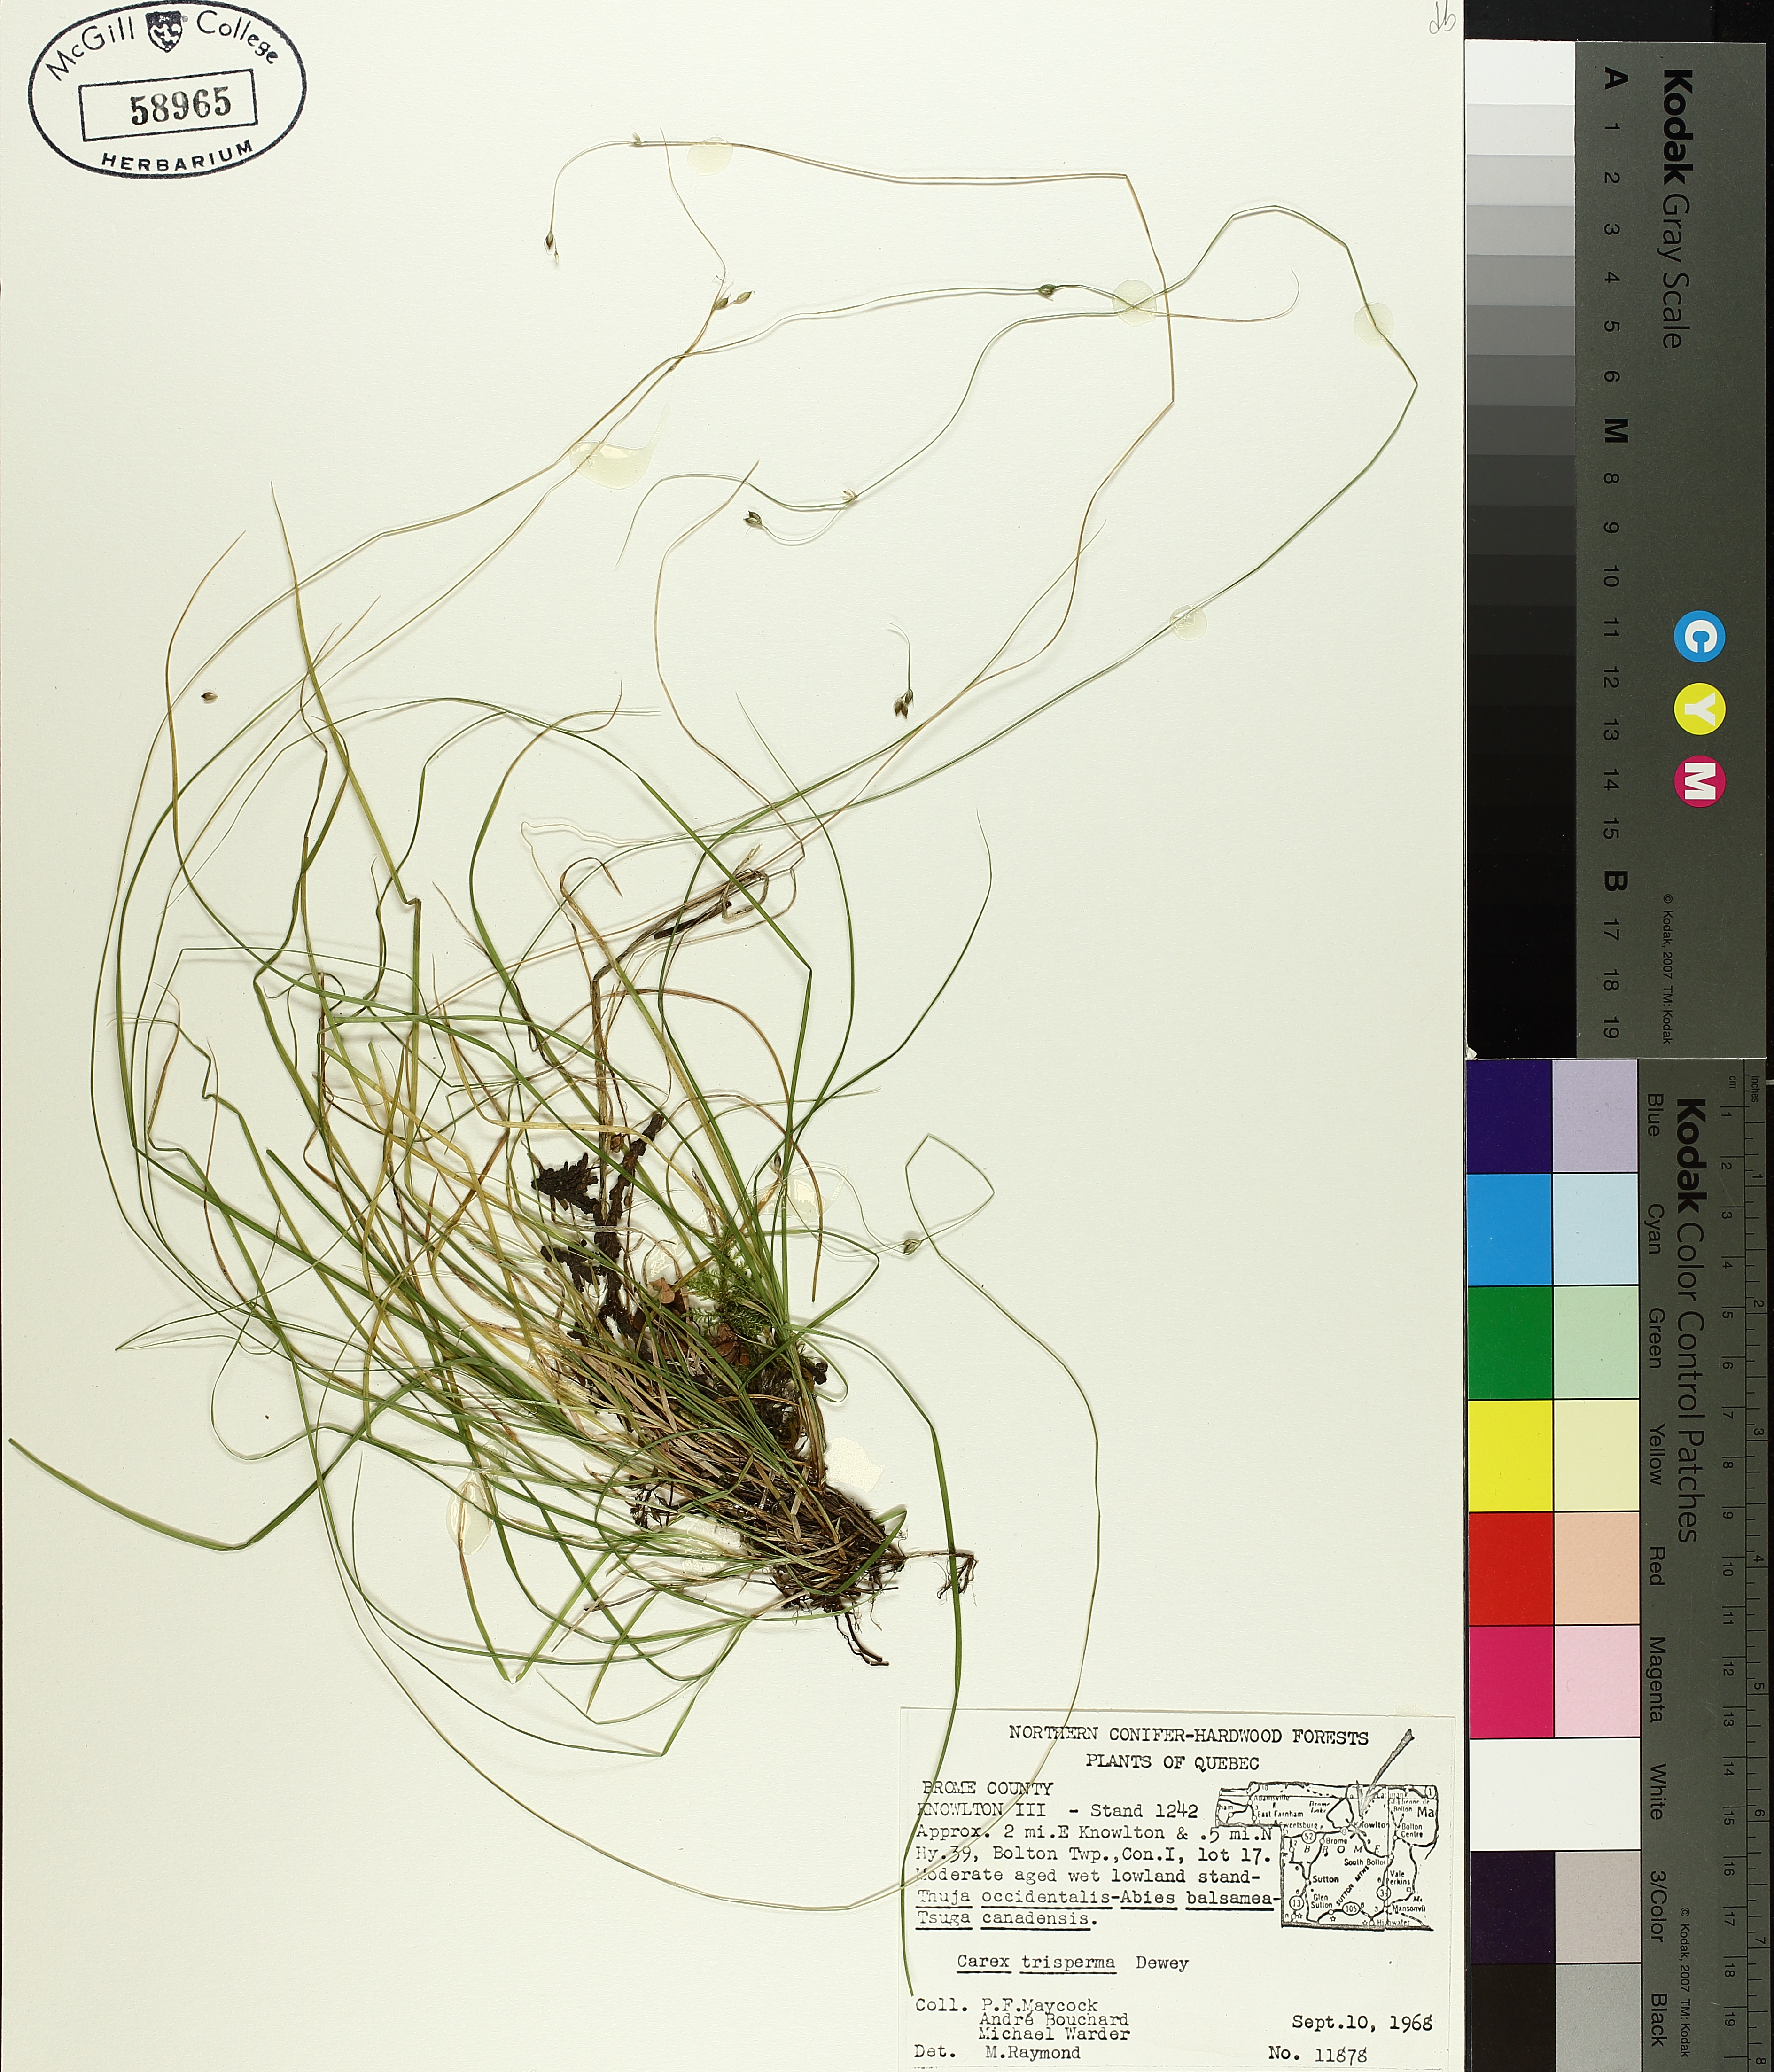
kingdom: Plantae
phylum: Tracheophyta
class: Liliopsida
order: Poales
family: Cyperaceae
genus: Carex
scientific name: Carex trisperma
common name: Three-seeded sedge
